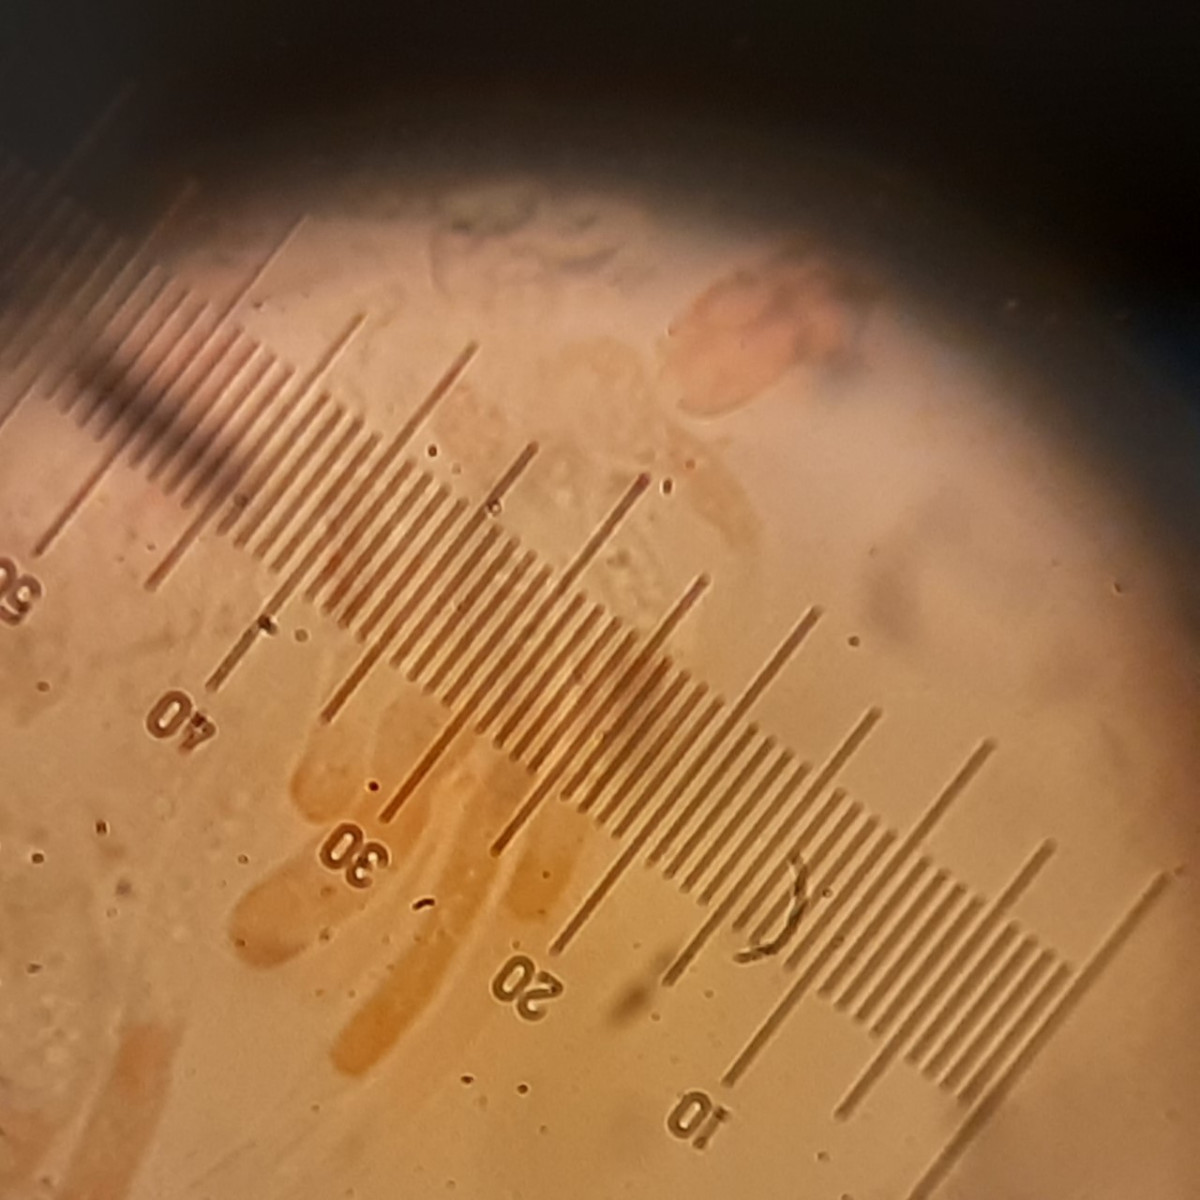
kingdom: Fungi
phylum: Ascomycota
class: Leotiomycetes
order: Helotiales
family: Cenangiaceae
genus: Trochila
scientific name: Trochila laurocerasi
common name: kirsebær-lågskive
